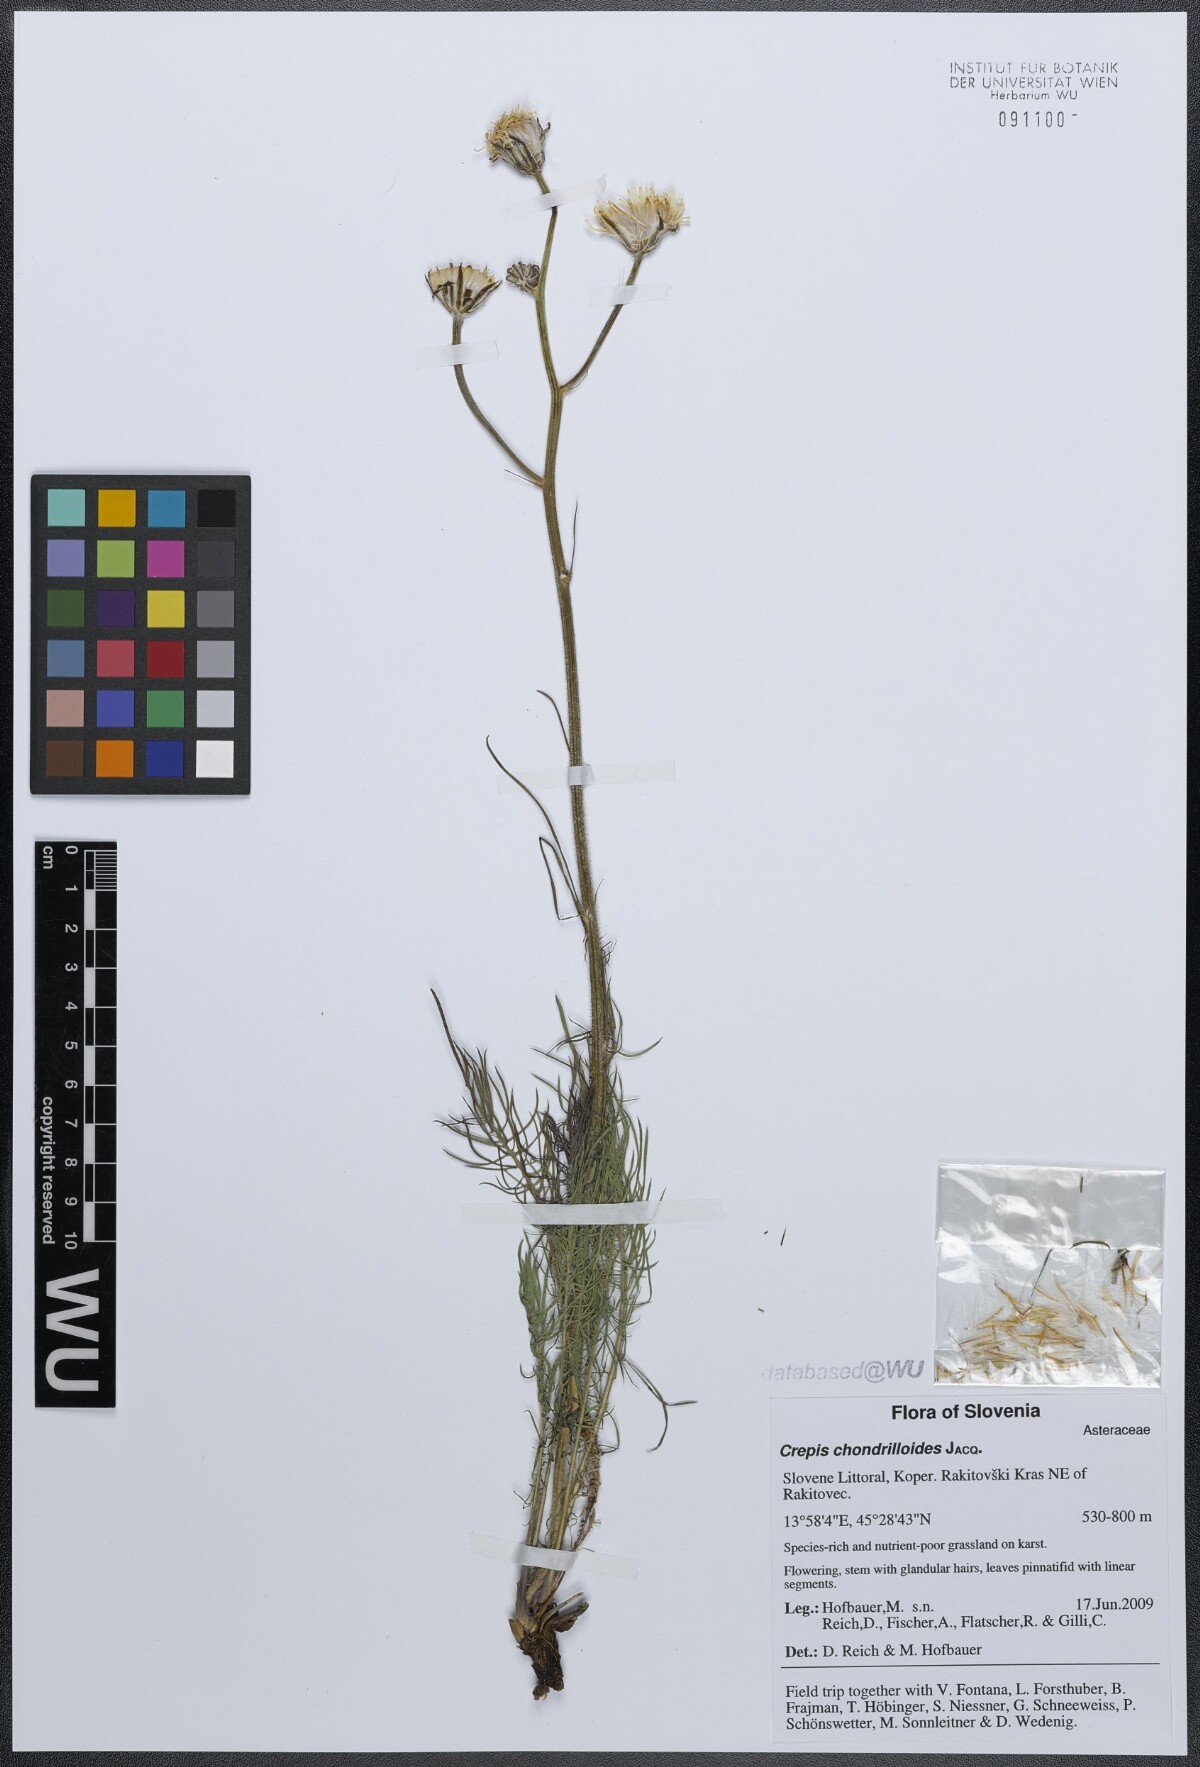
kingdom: Plantae
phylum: Tracheophyta
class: Magnoliopsida
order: Asterales
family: Asteraceae
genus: Crepis
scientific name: Crepis chondrilloides
